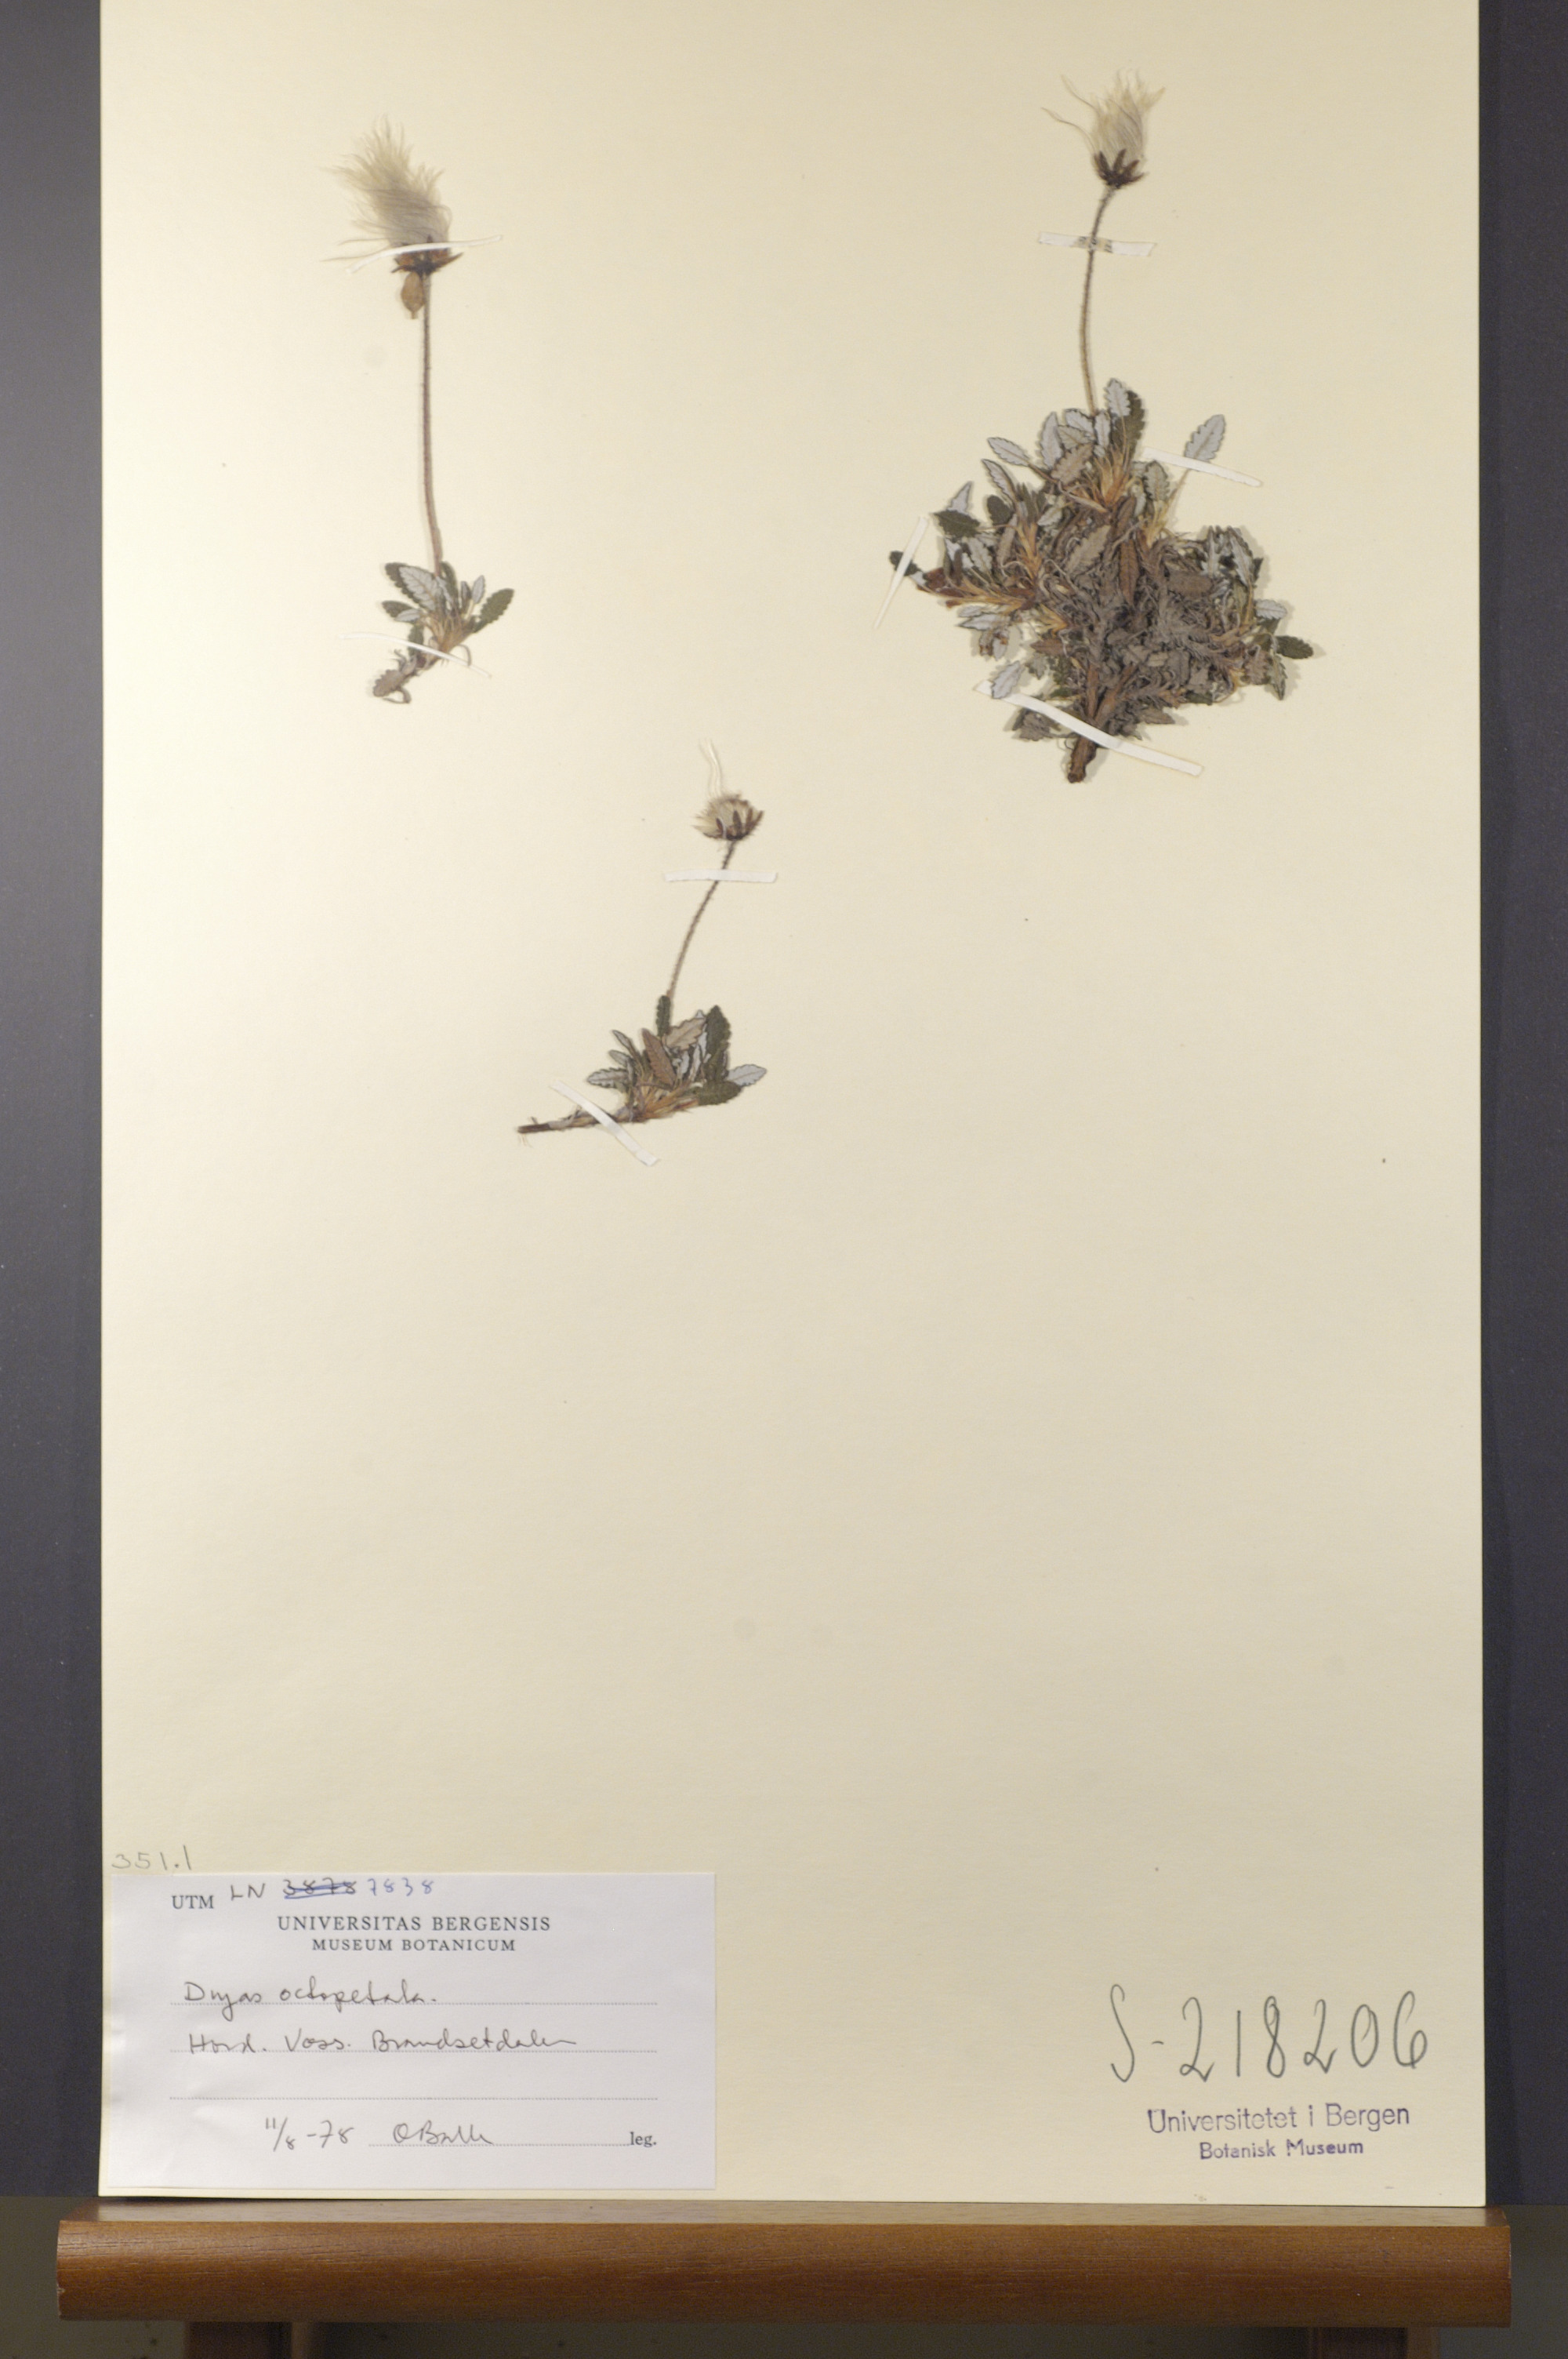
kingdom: Plantae
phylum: Tracheophyta
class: Magnoliopsida
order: Rosales
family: Rosaceae
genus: Dryas
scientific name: Dryas octopetala
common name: Eight-petal mountain-avens
